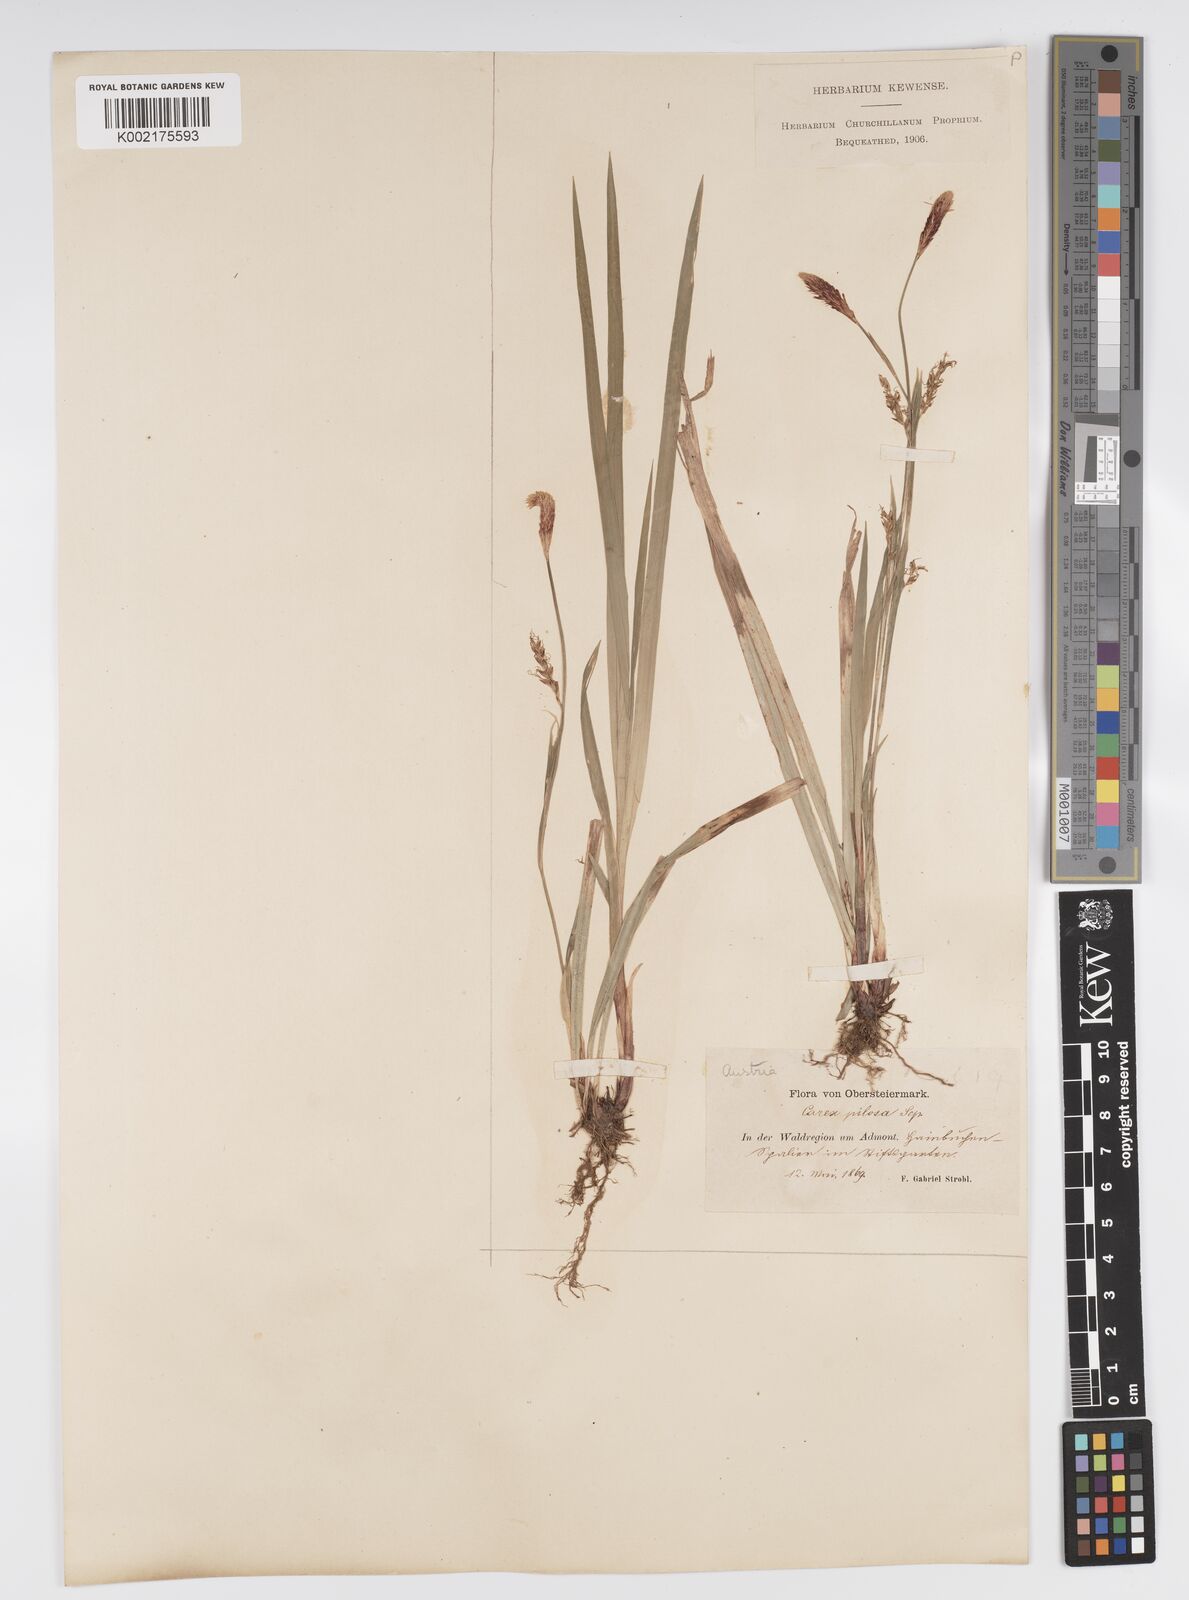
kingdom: Plantae
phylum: Tracheophyta
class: Liliopsida
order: Poales
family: Cyperaceae
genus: Carex
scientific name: Carex pilosa
